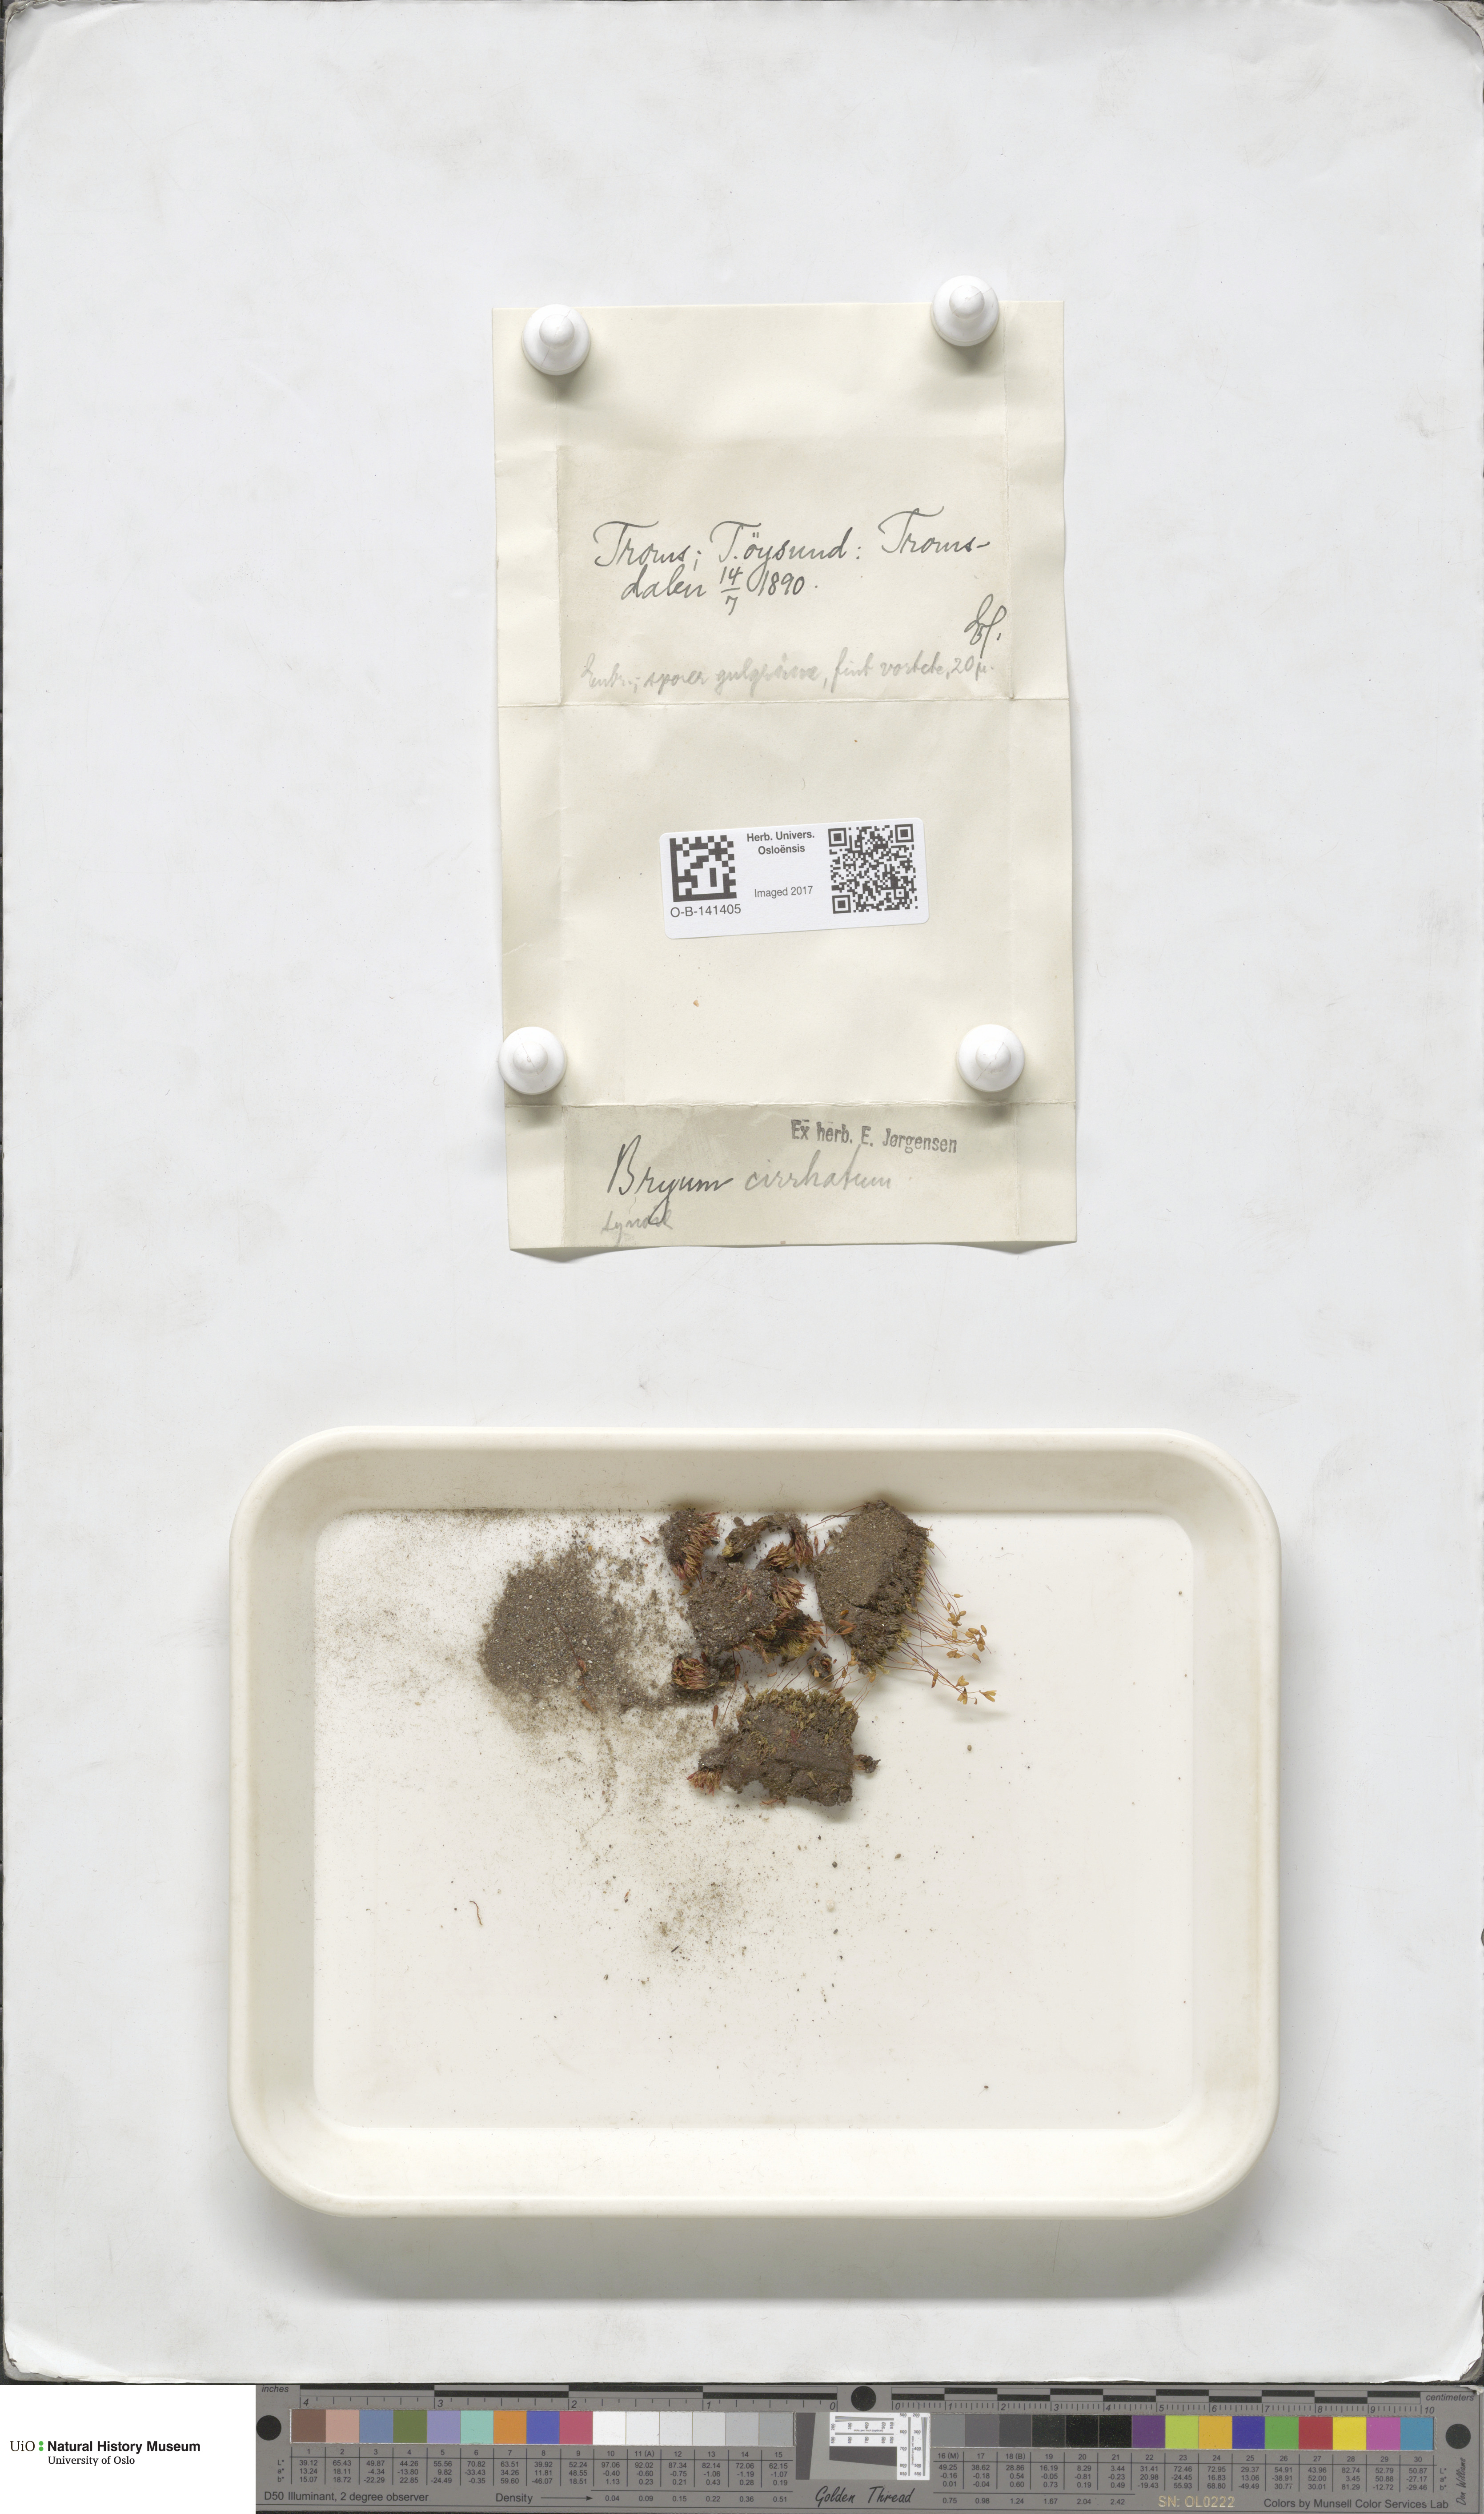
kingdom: Plantae
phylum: Bryophyta
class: Bryopsida
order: Bryales
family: Bryaceae
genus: Ptychostomum
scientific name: Ptychostomum pallescens
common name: Tall-clustered thread-moss
